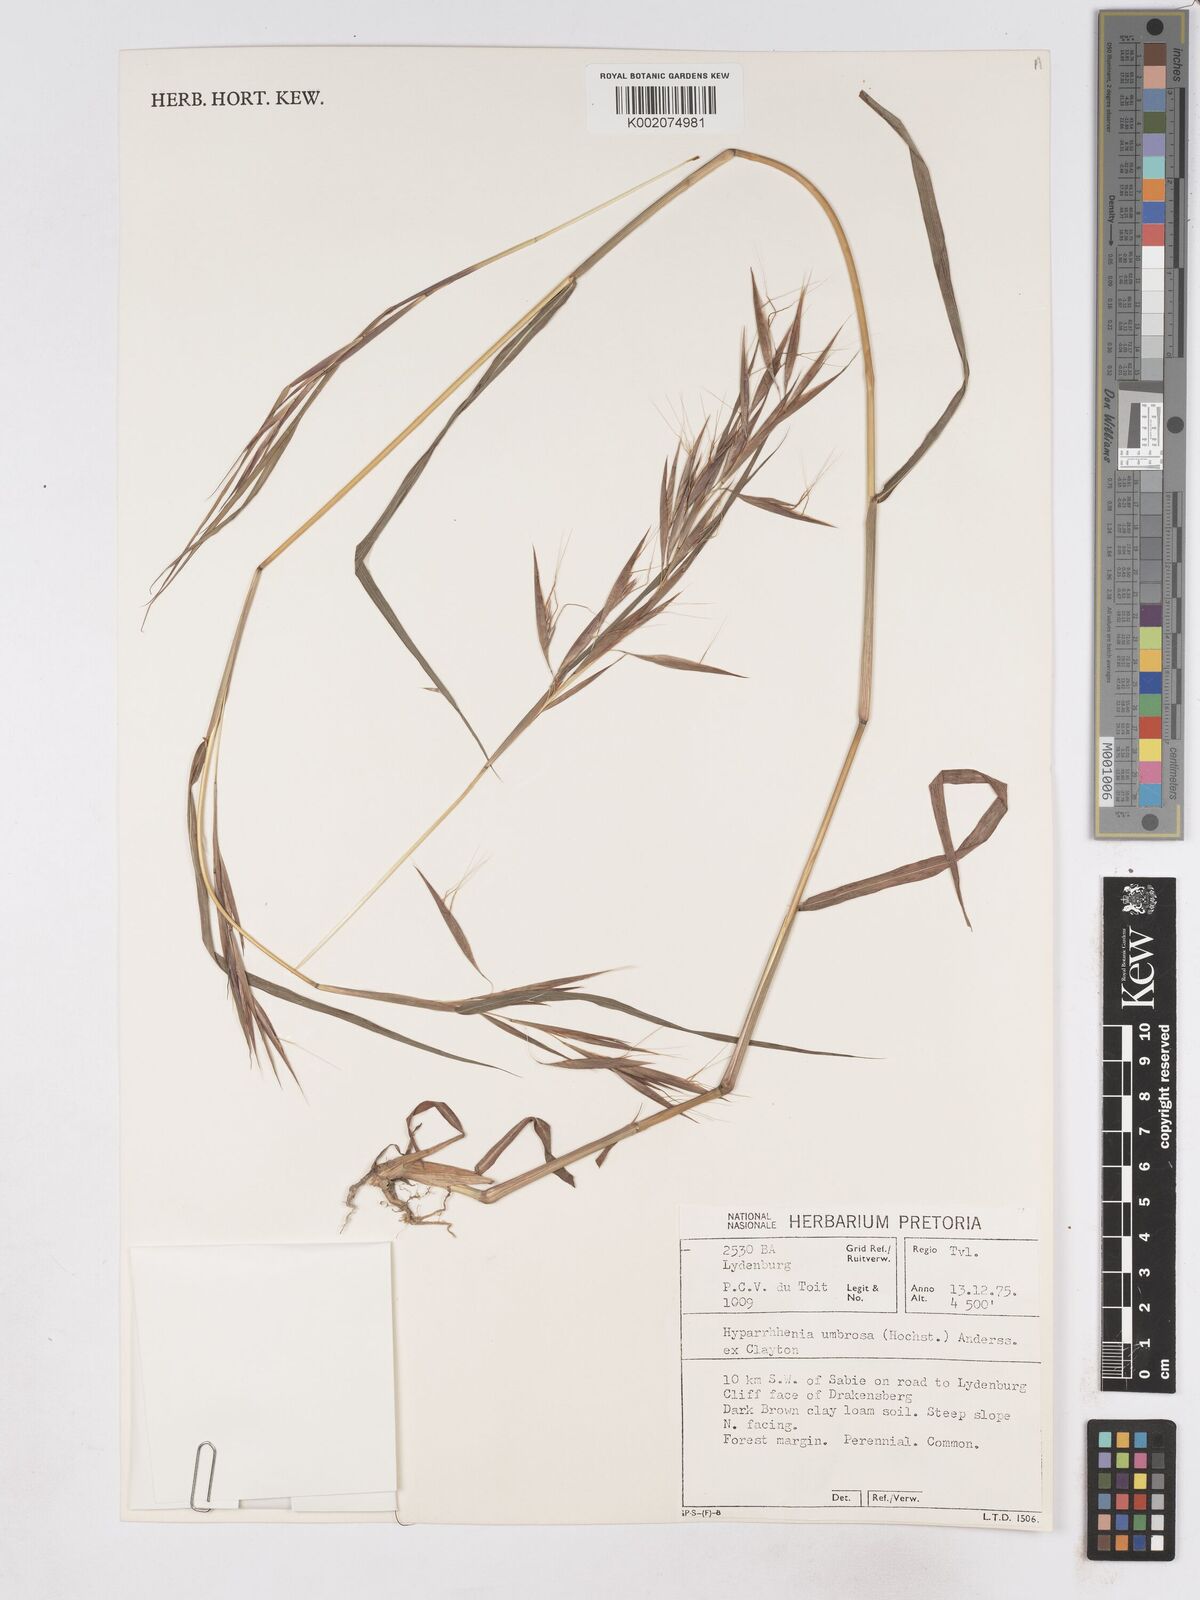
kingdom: Plantae
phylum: Tracheophyta
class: Liliopsida
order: Poales
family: Poaceae
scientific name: Poaceae
